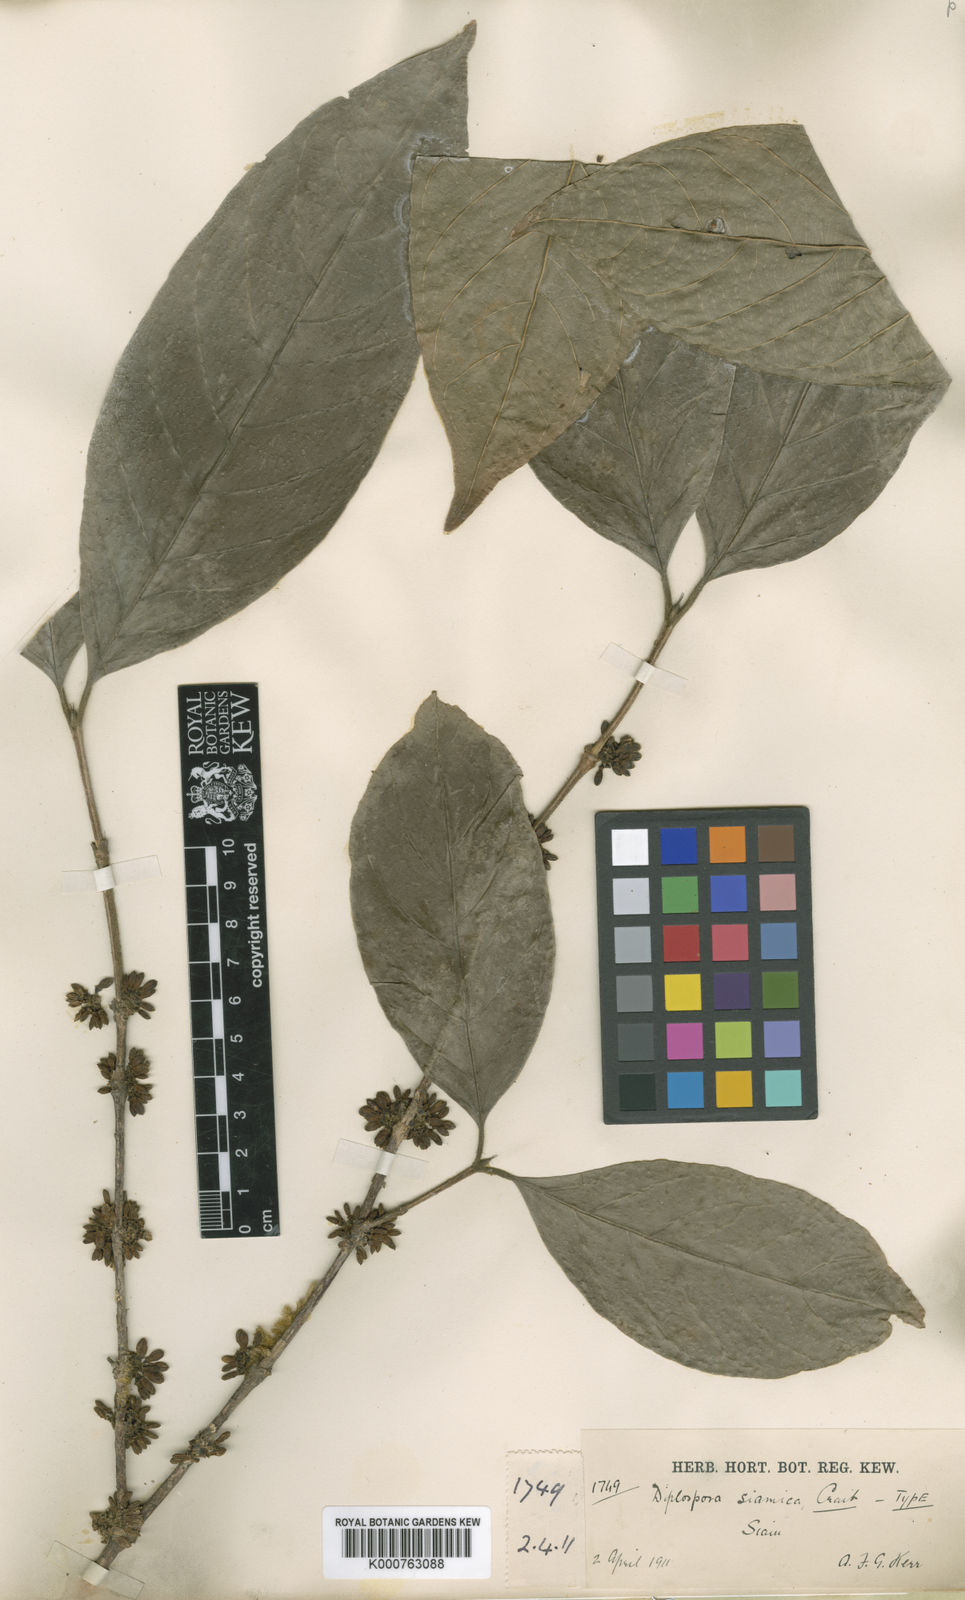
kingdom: Plantae
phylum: Tracheophyta
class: Magnoliopsida
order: Gentianales
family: Rubiaceae
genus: Diplospora
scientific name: Diplospora siamica
